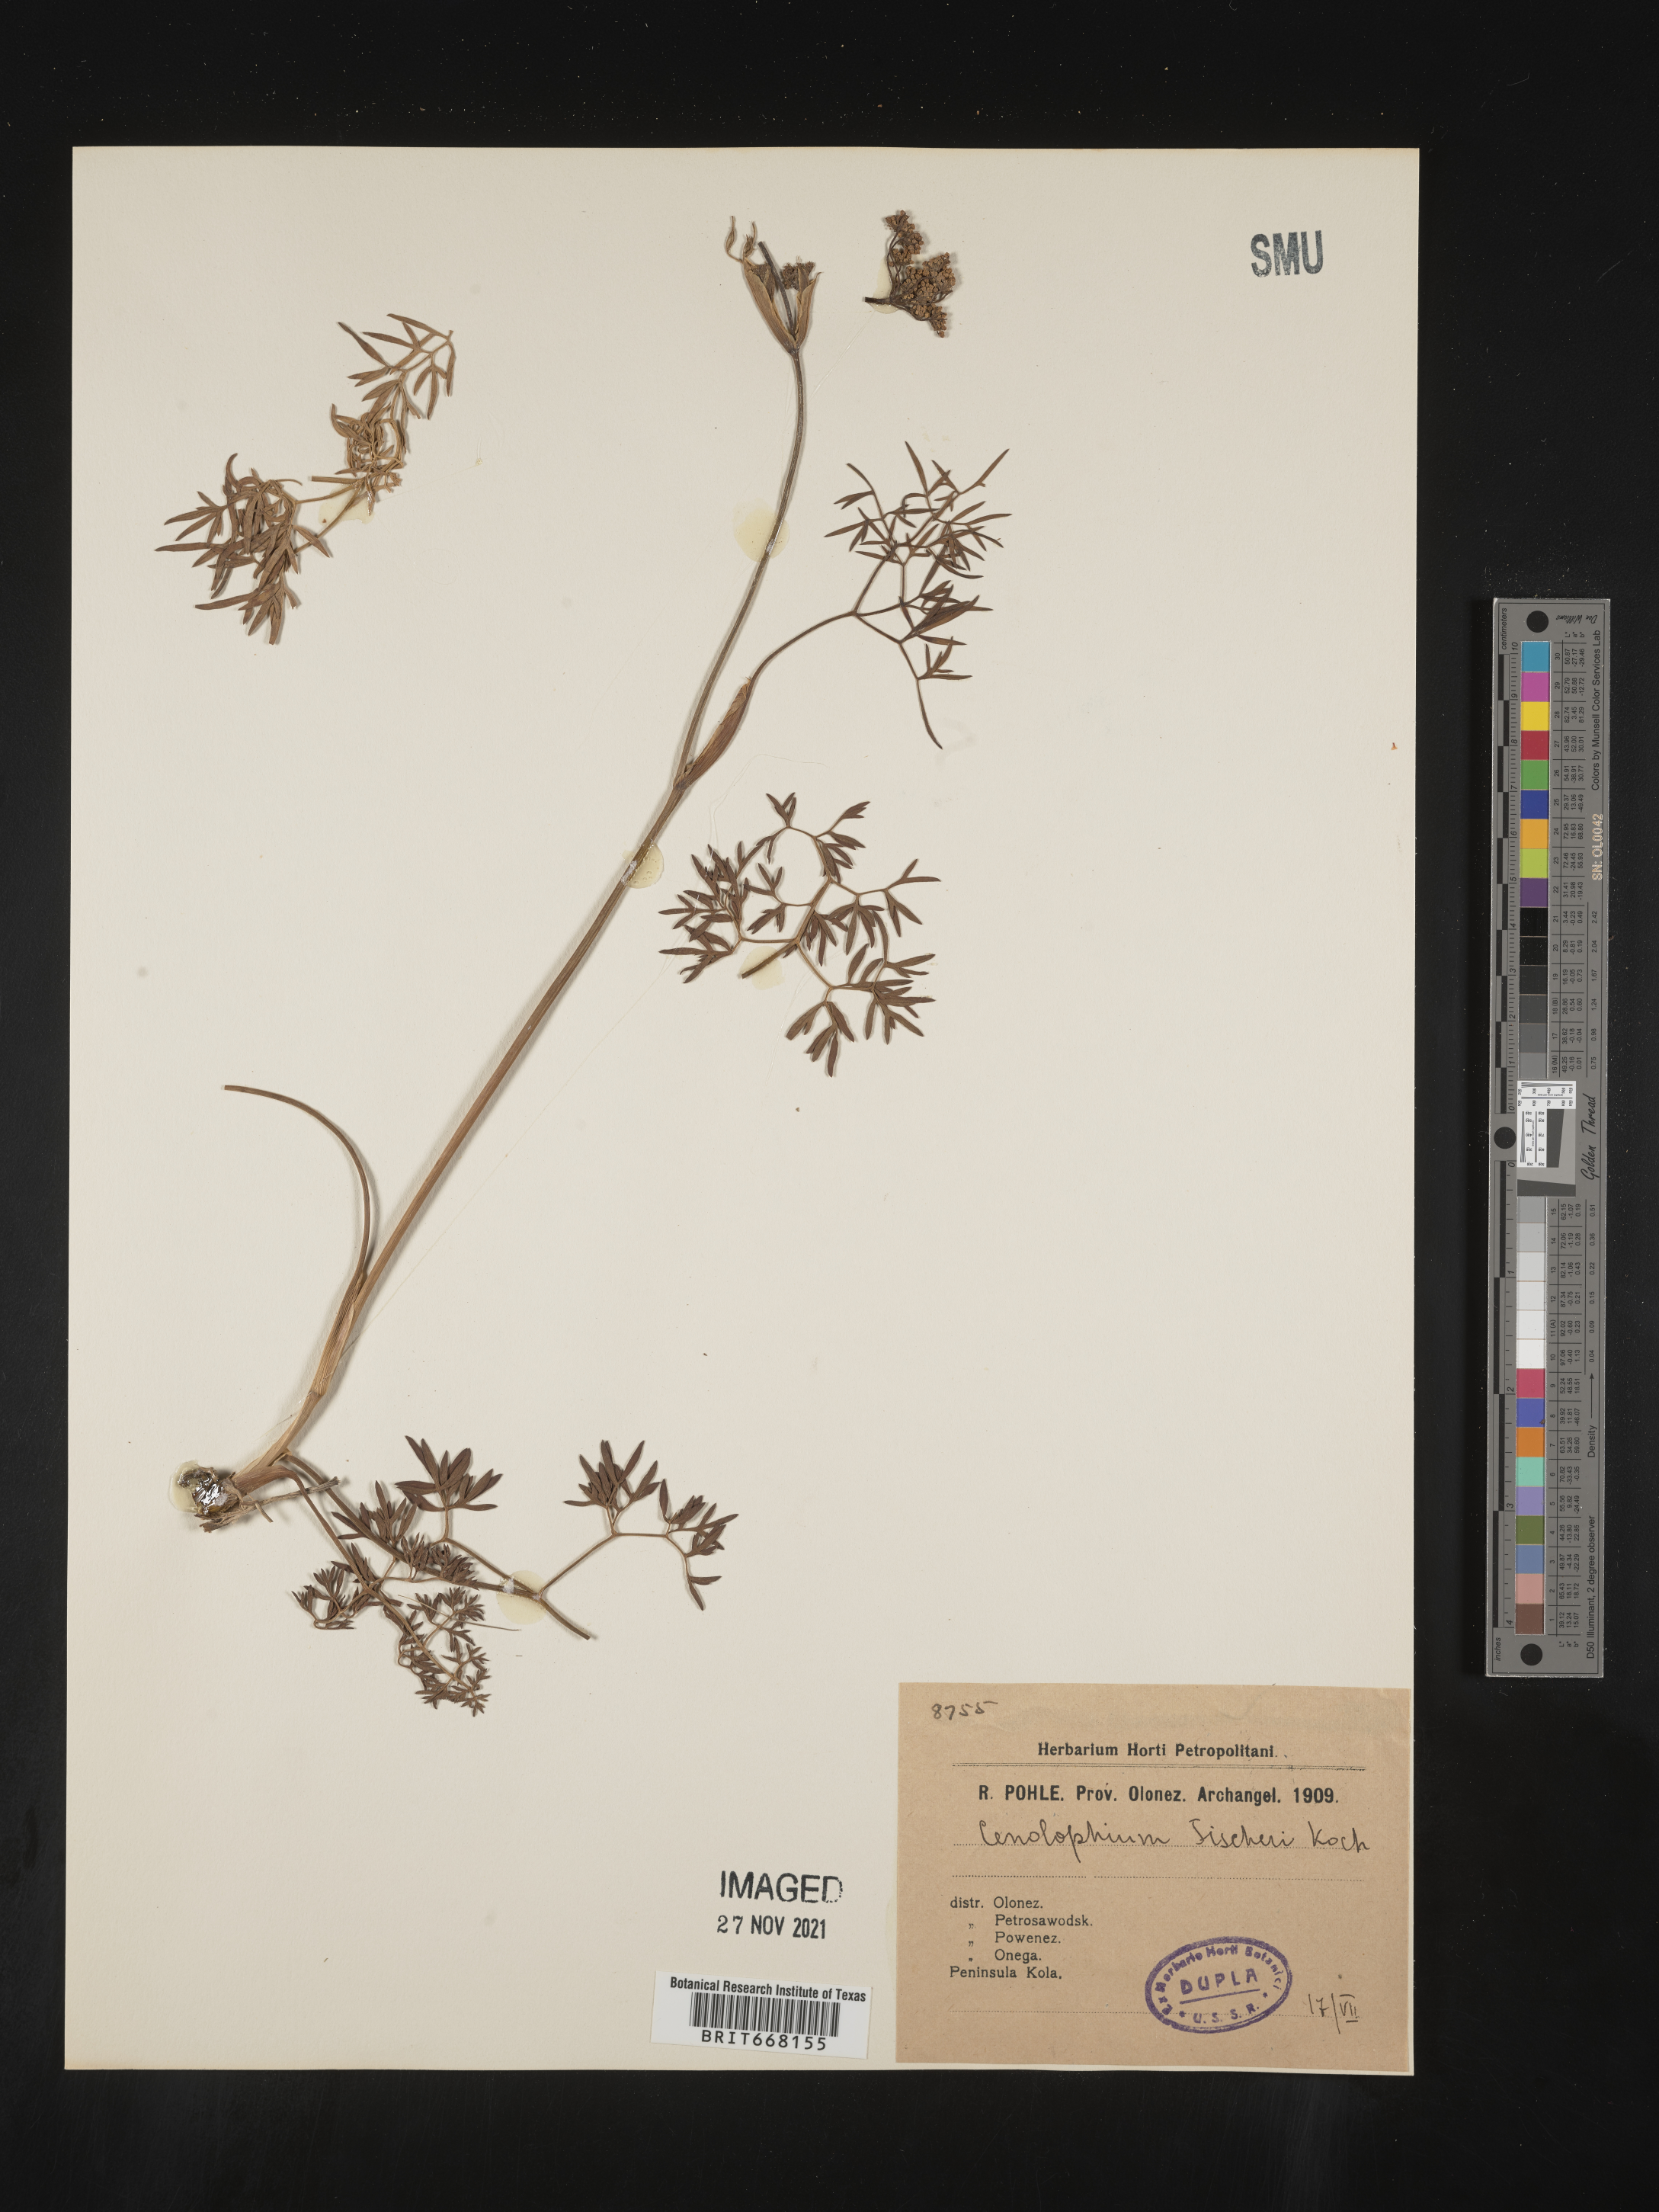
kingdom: Plantae
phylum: Tracheophyta
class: Magnoliopsida
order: Apiales
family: Apiaceae
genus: Cenolophium
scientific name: Cenolophium
